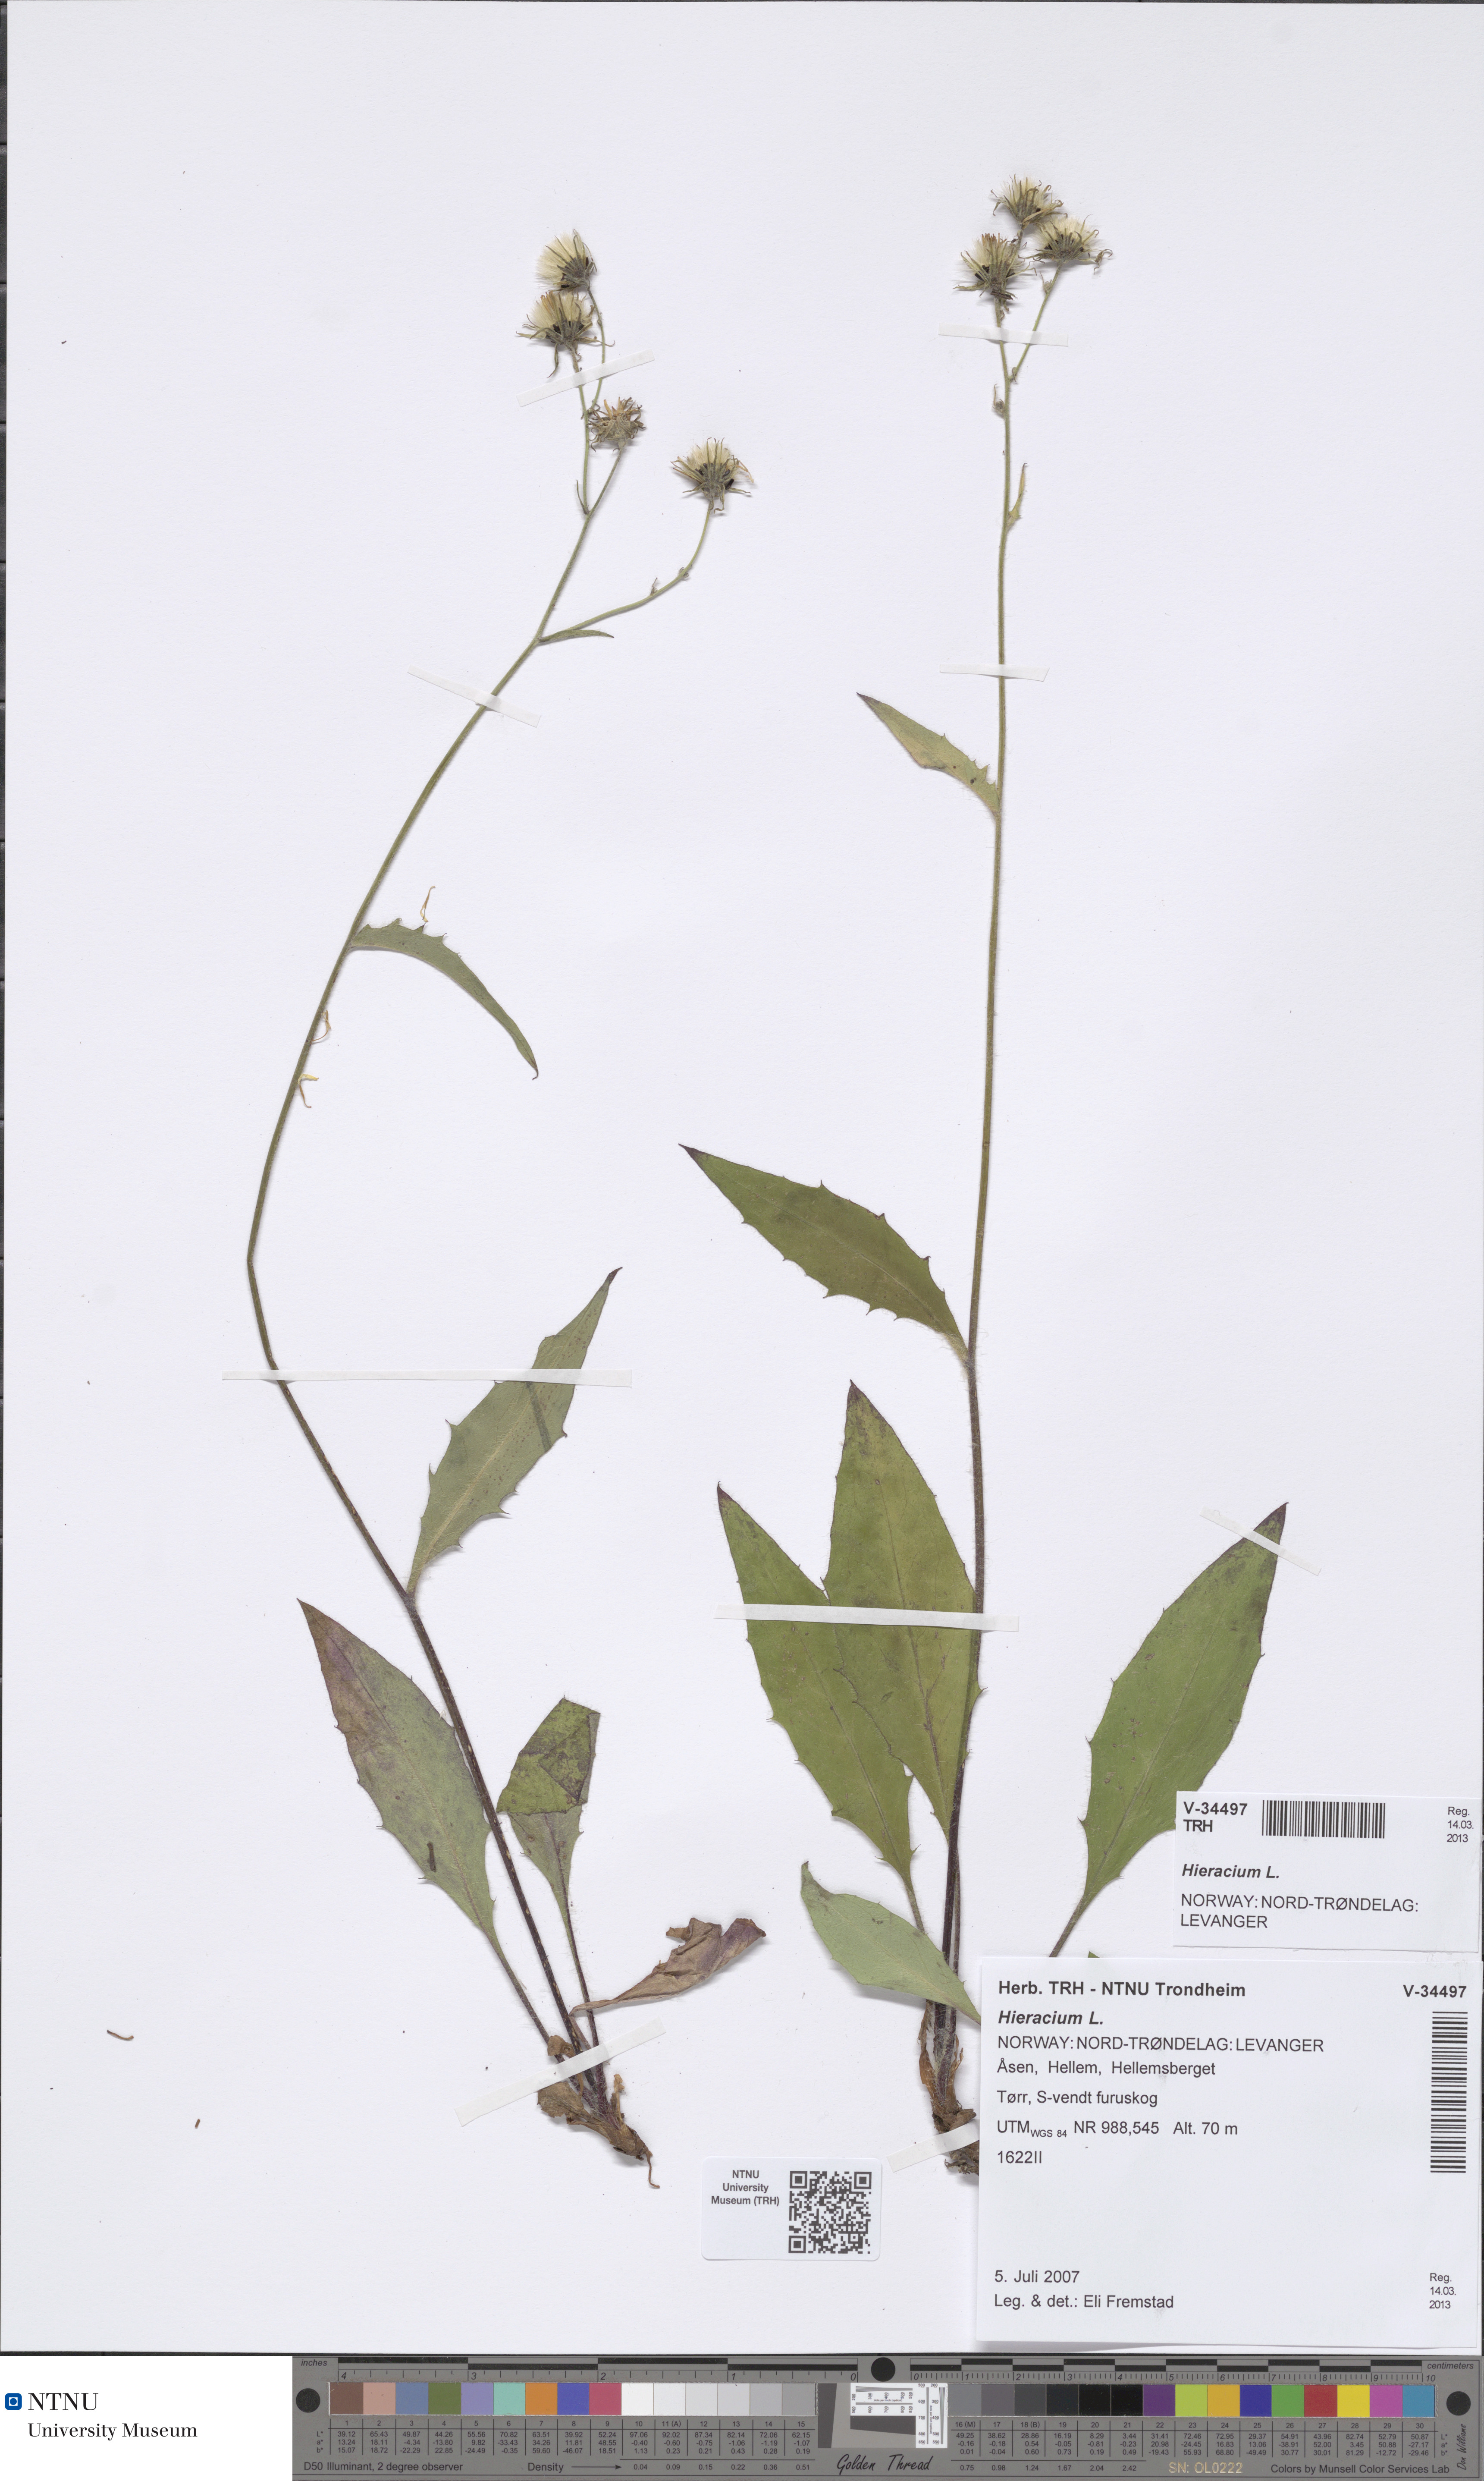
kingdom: Plantae
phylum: Tracheophyta
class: Magnoliopsida
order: Asterales
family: Asteraceae
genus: Hieracium
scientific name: Hieracium
